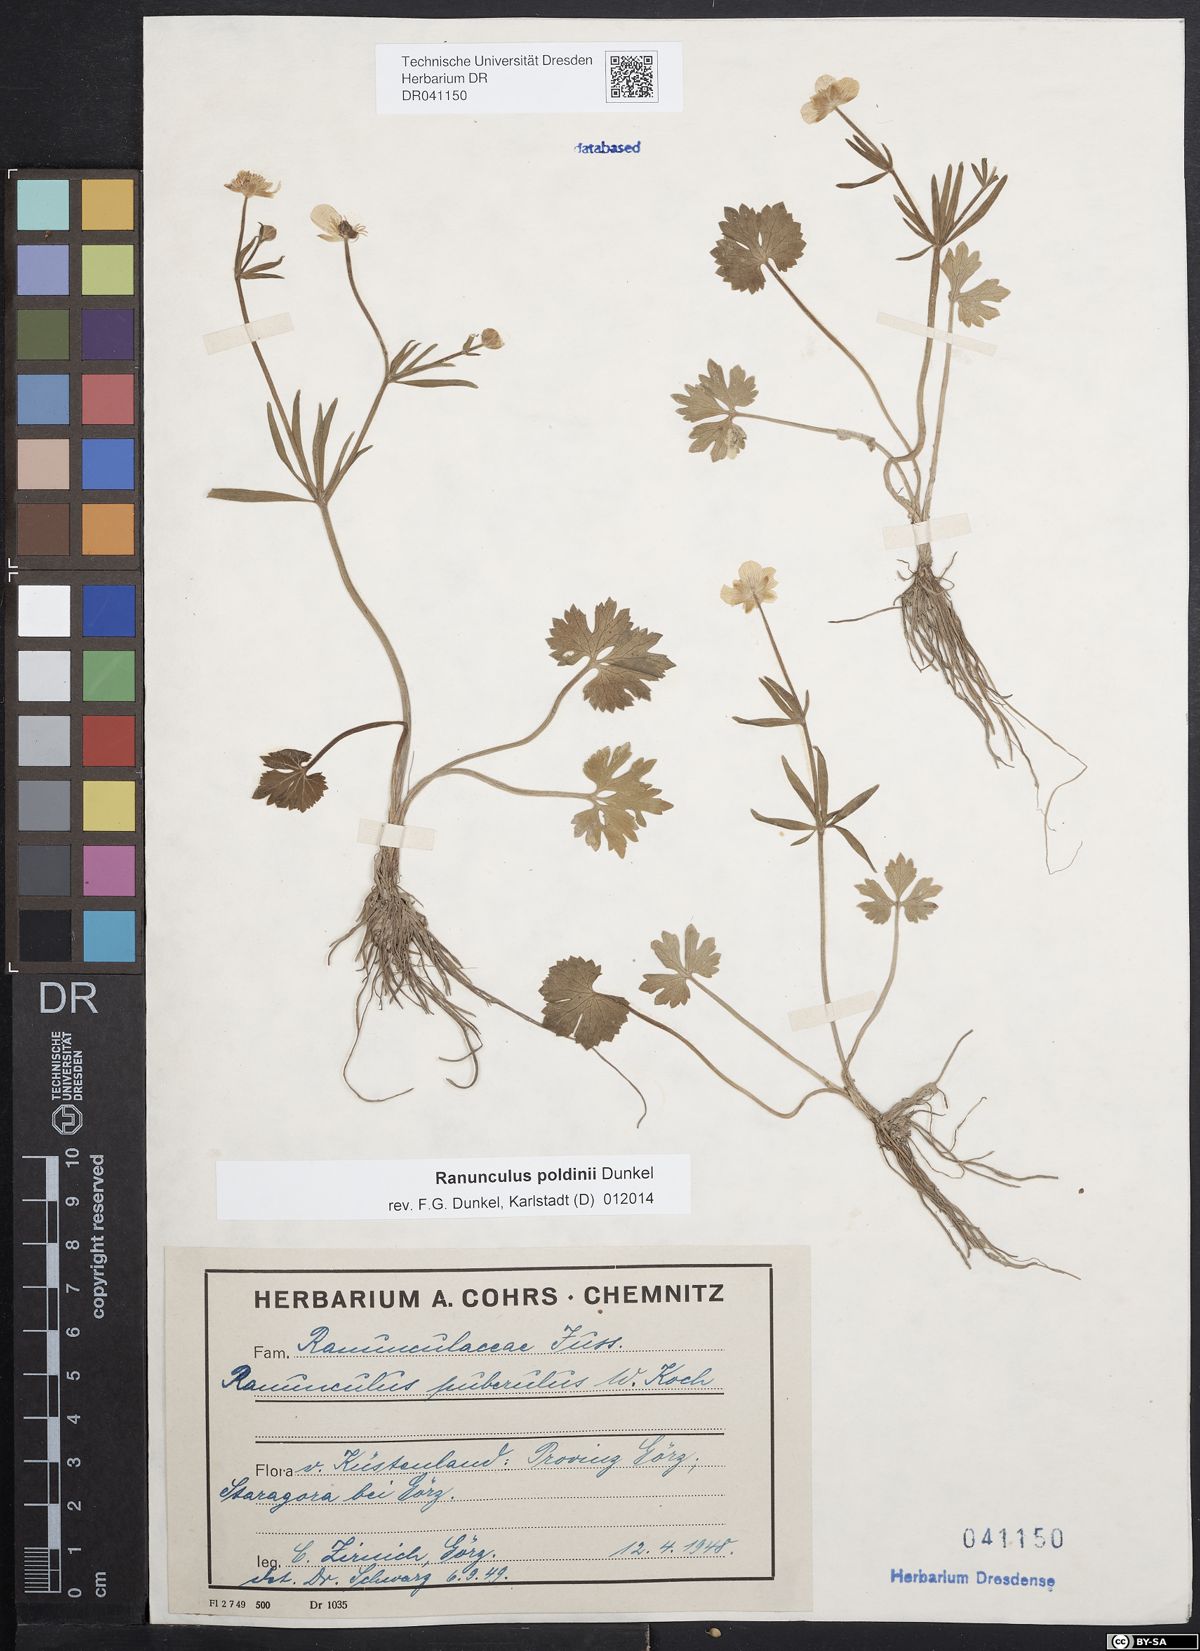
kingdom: Plantae
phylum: Tracheophyta
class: Magnoliopsida
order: Ranunculales
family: Ranunculaceae
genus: Ranunculus
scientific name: Ranunculus poldinii
